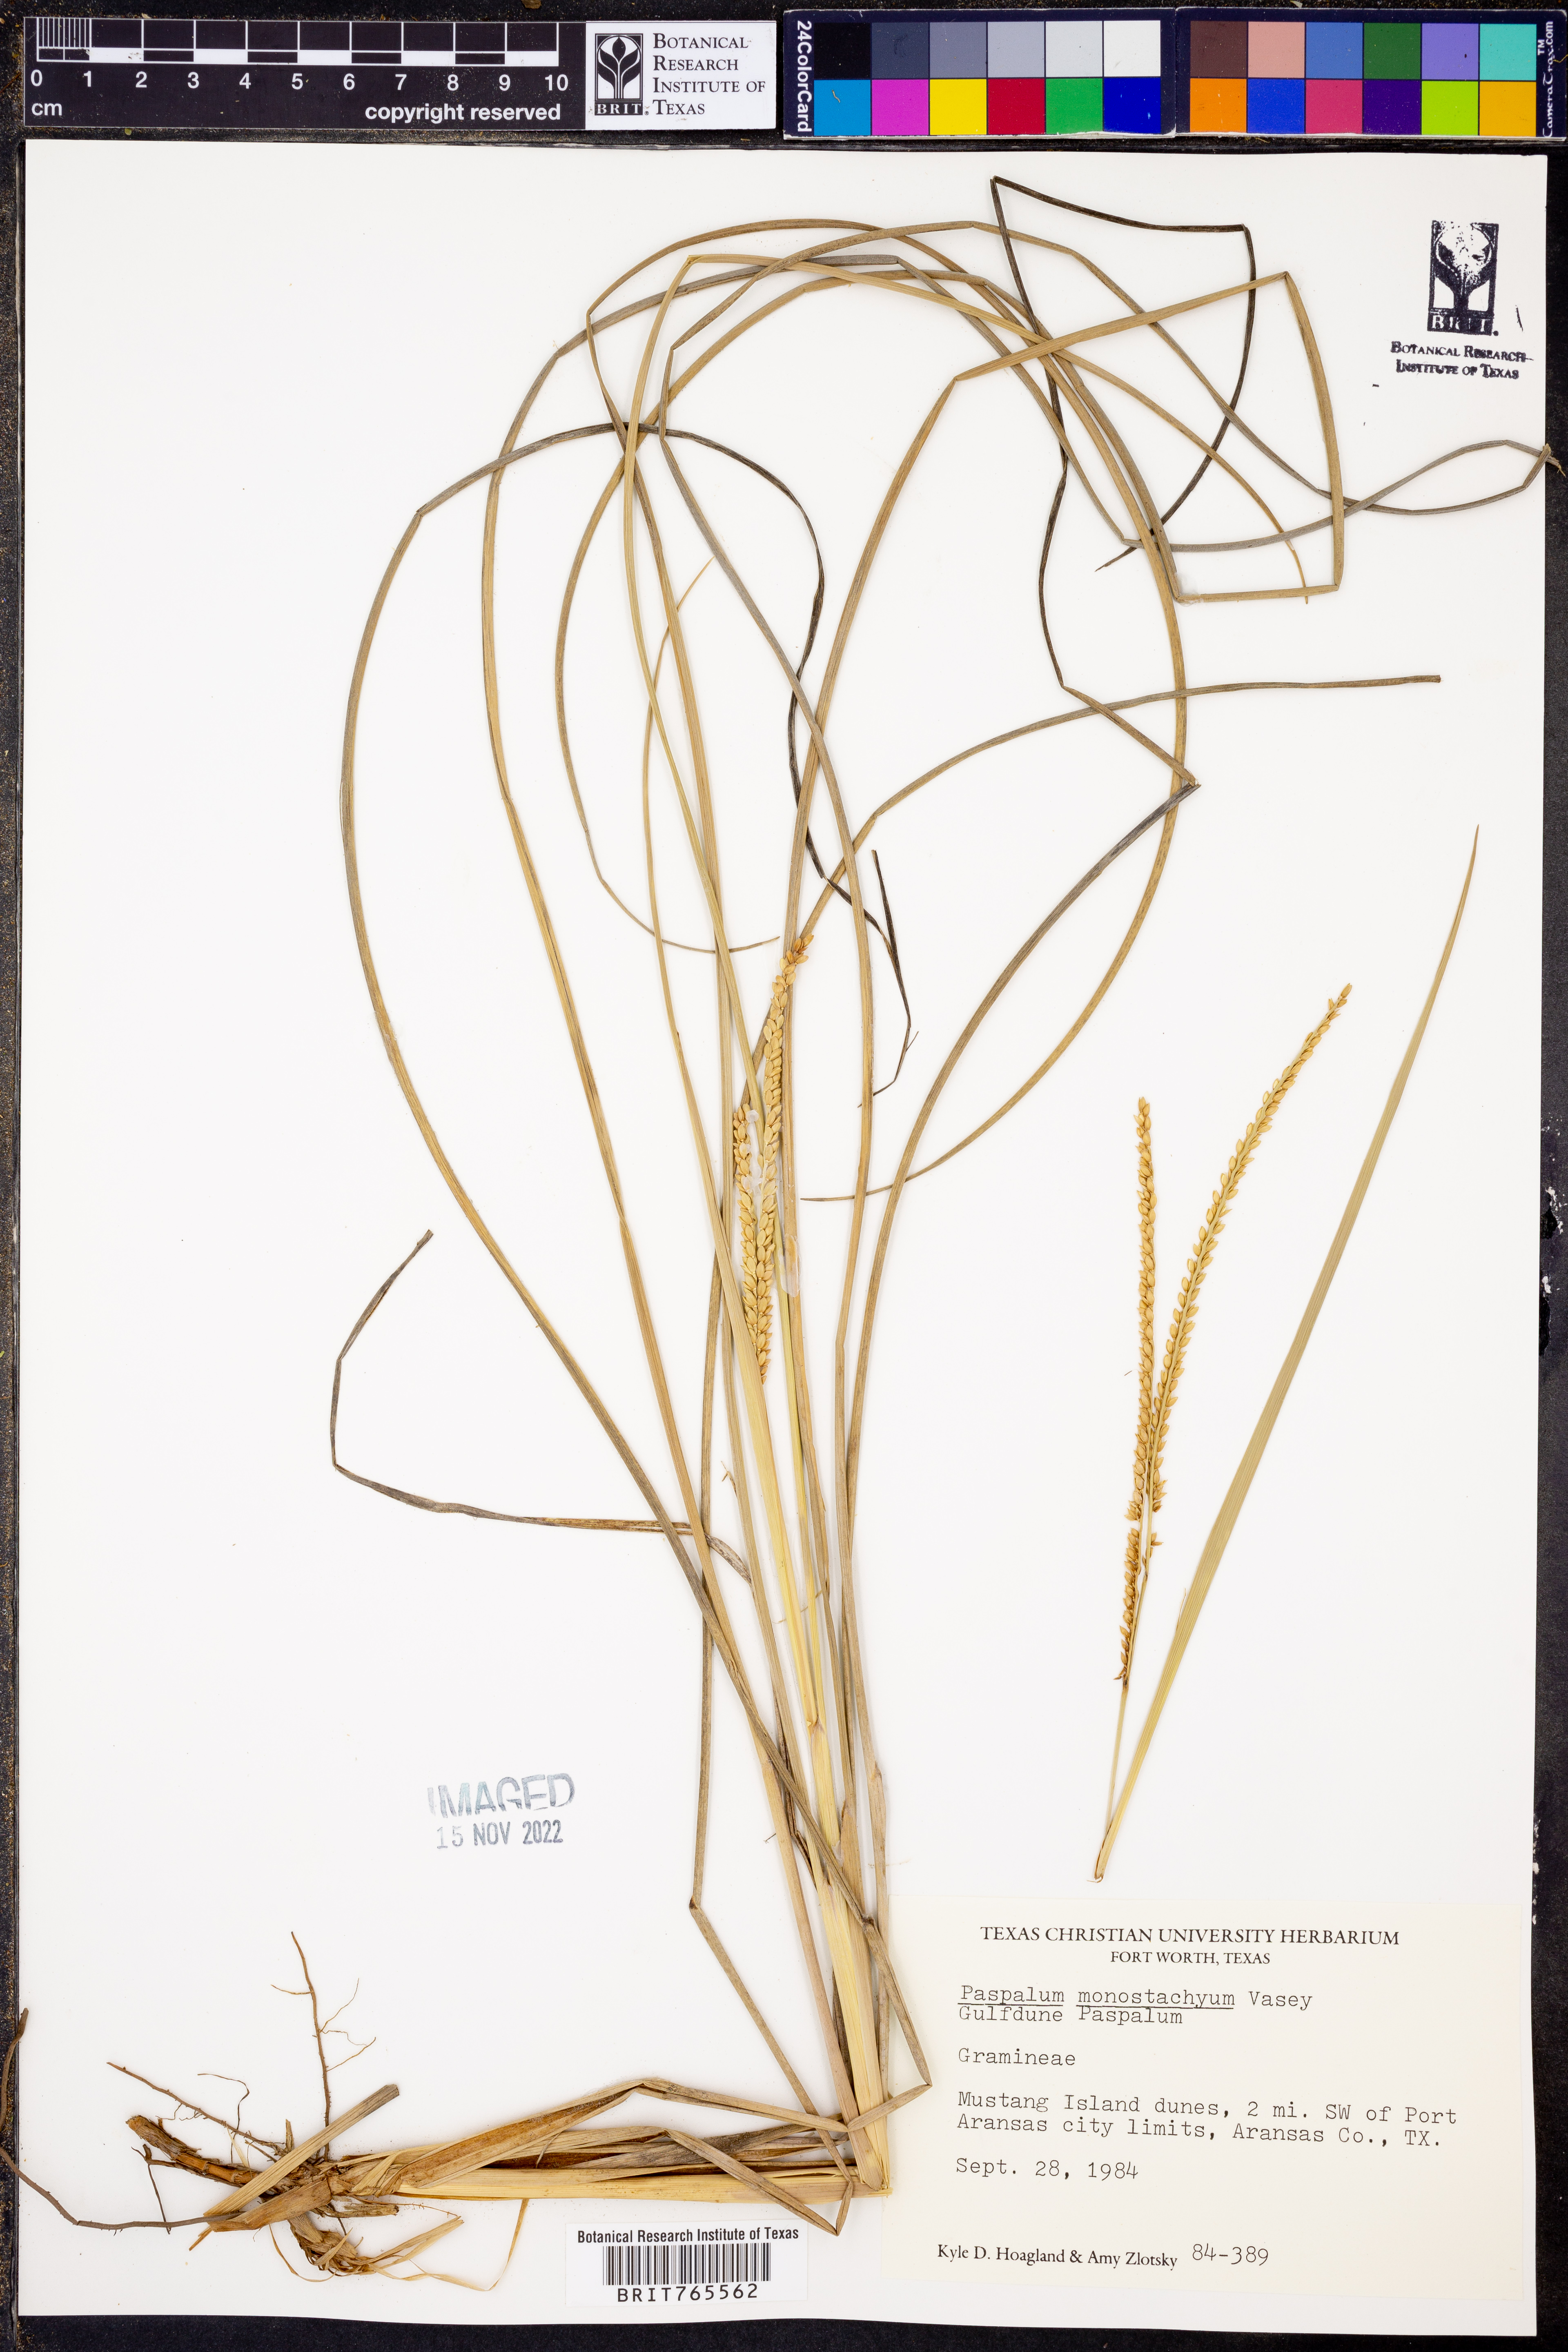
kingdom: Plantae
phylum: Tracheophyta
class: Liliopsida
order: Poales
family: Poaceae
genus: Paspalum
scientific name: Paspalum monostachyum
